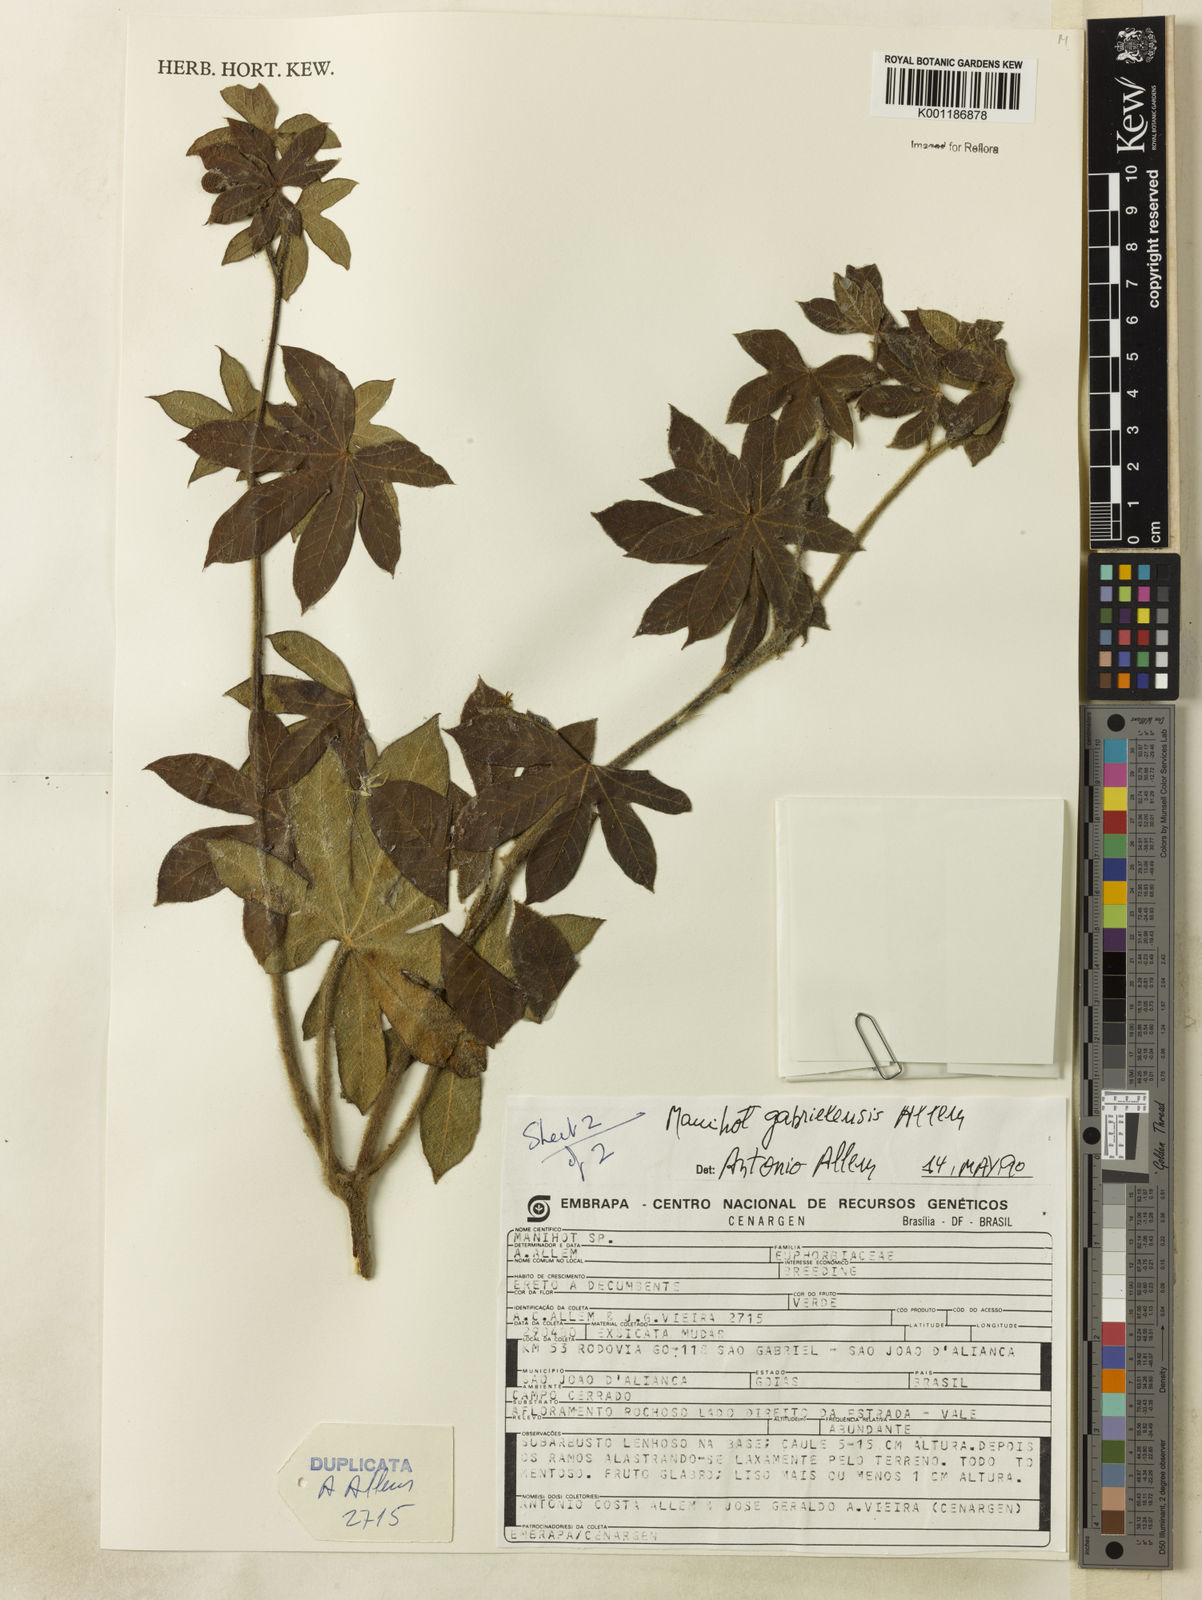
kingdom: Plantae
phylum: Tracheophyta
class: Magnoliopsida
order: Malpighiales
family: Euphorbiaceae
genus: Manihot
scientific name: Manihot gabrielensis
